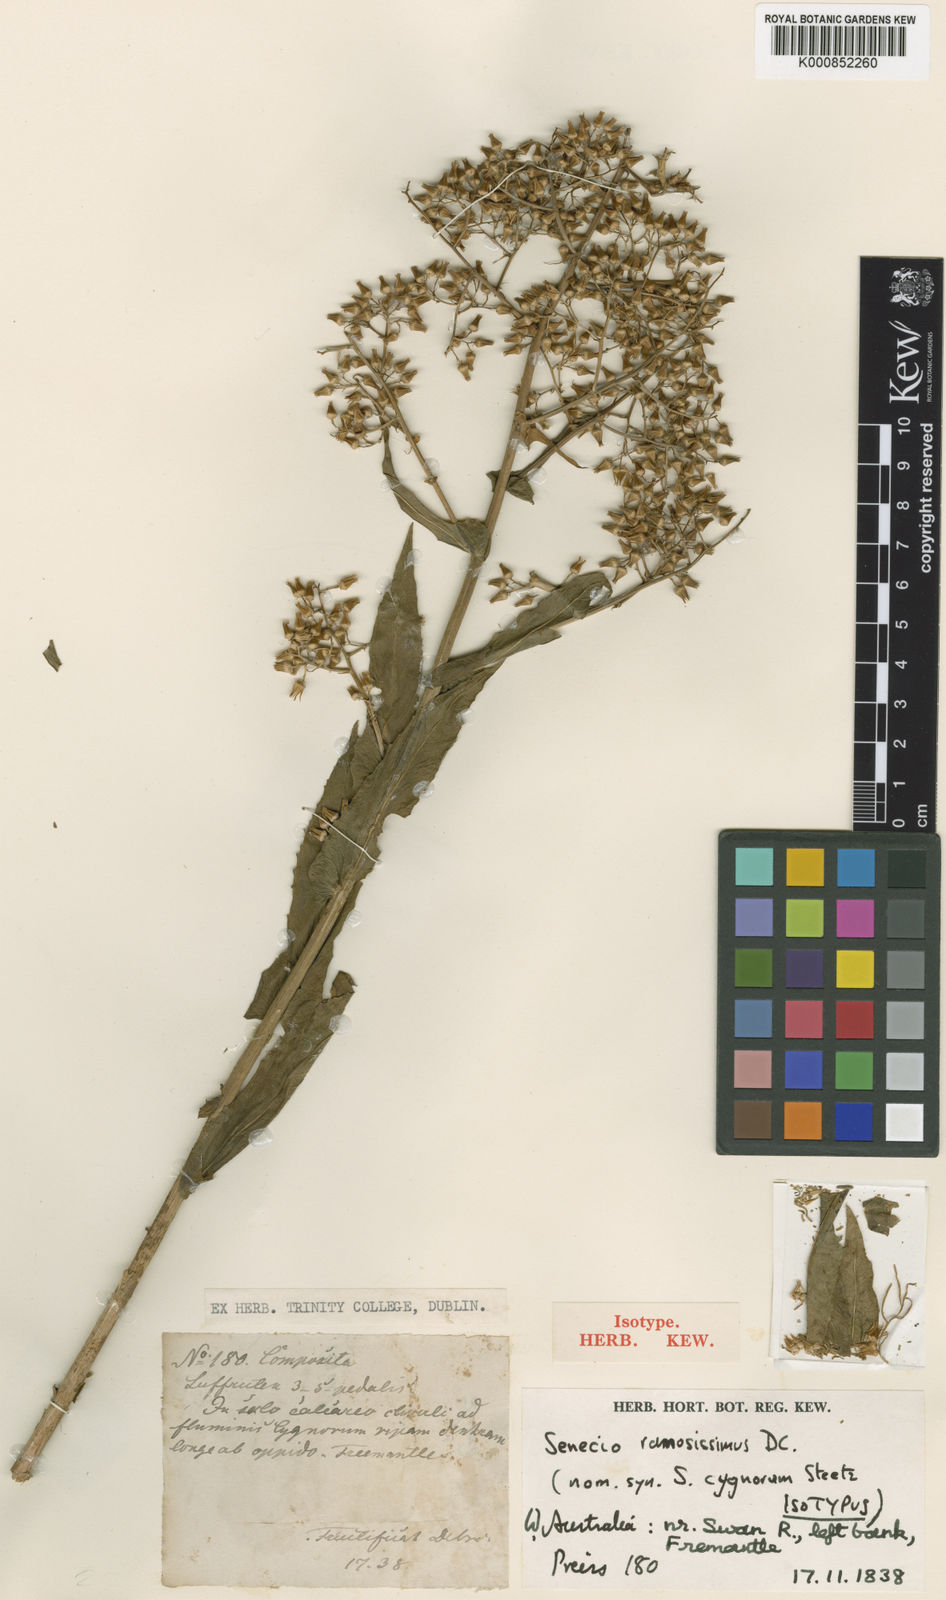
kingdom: Plantae
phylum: Tracheophyta
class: Magnoliopsida
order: Asterales
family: Asteraceae
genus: Senecio
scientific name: Senecio ramosissimus
